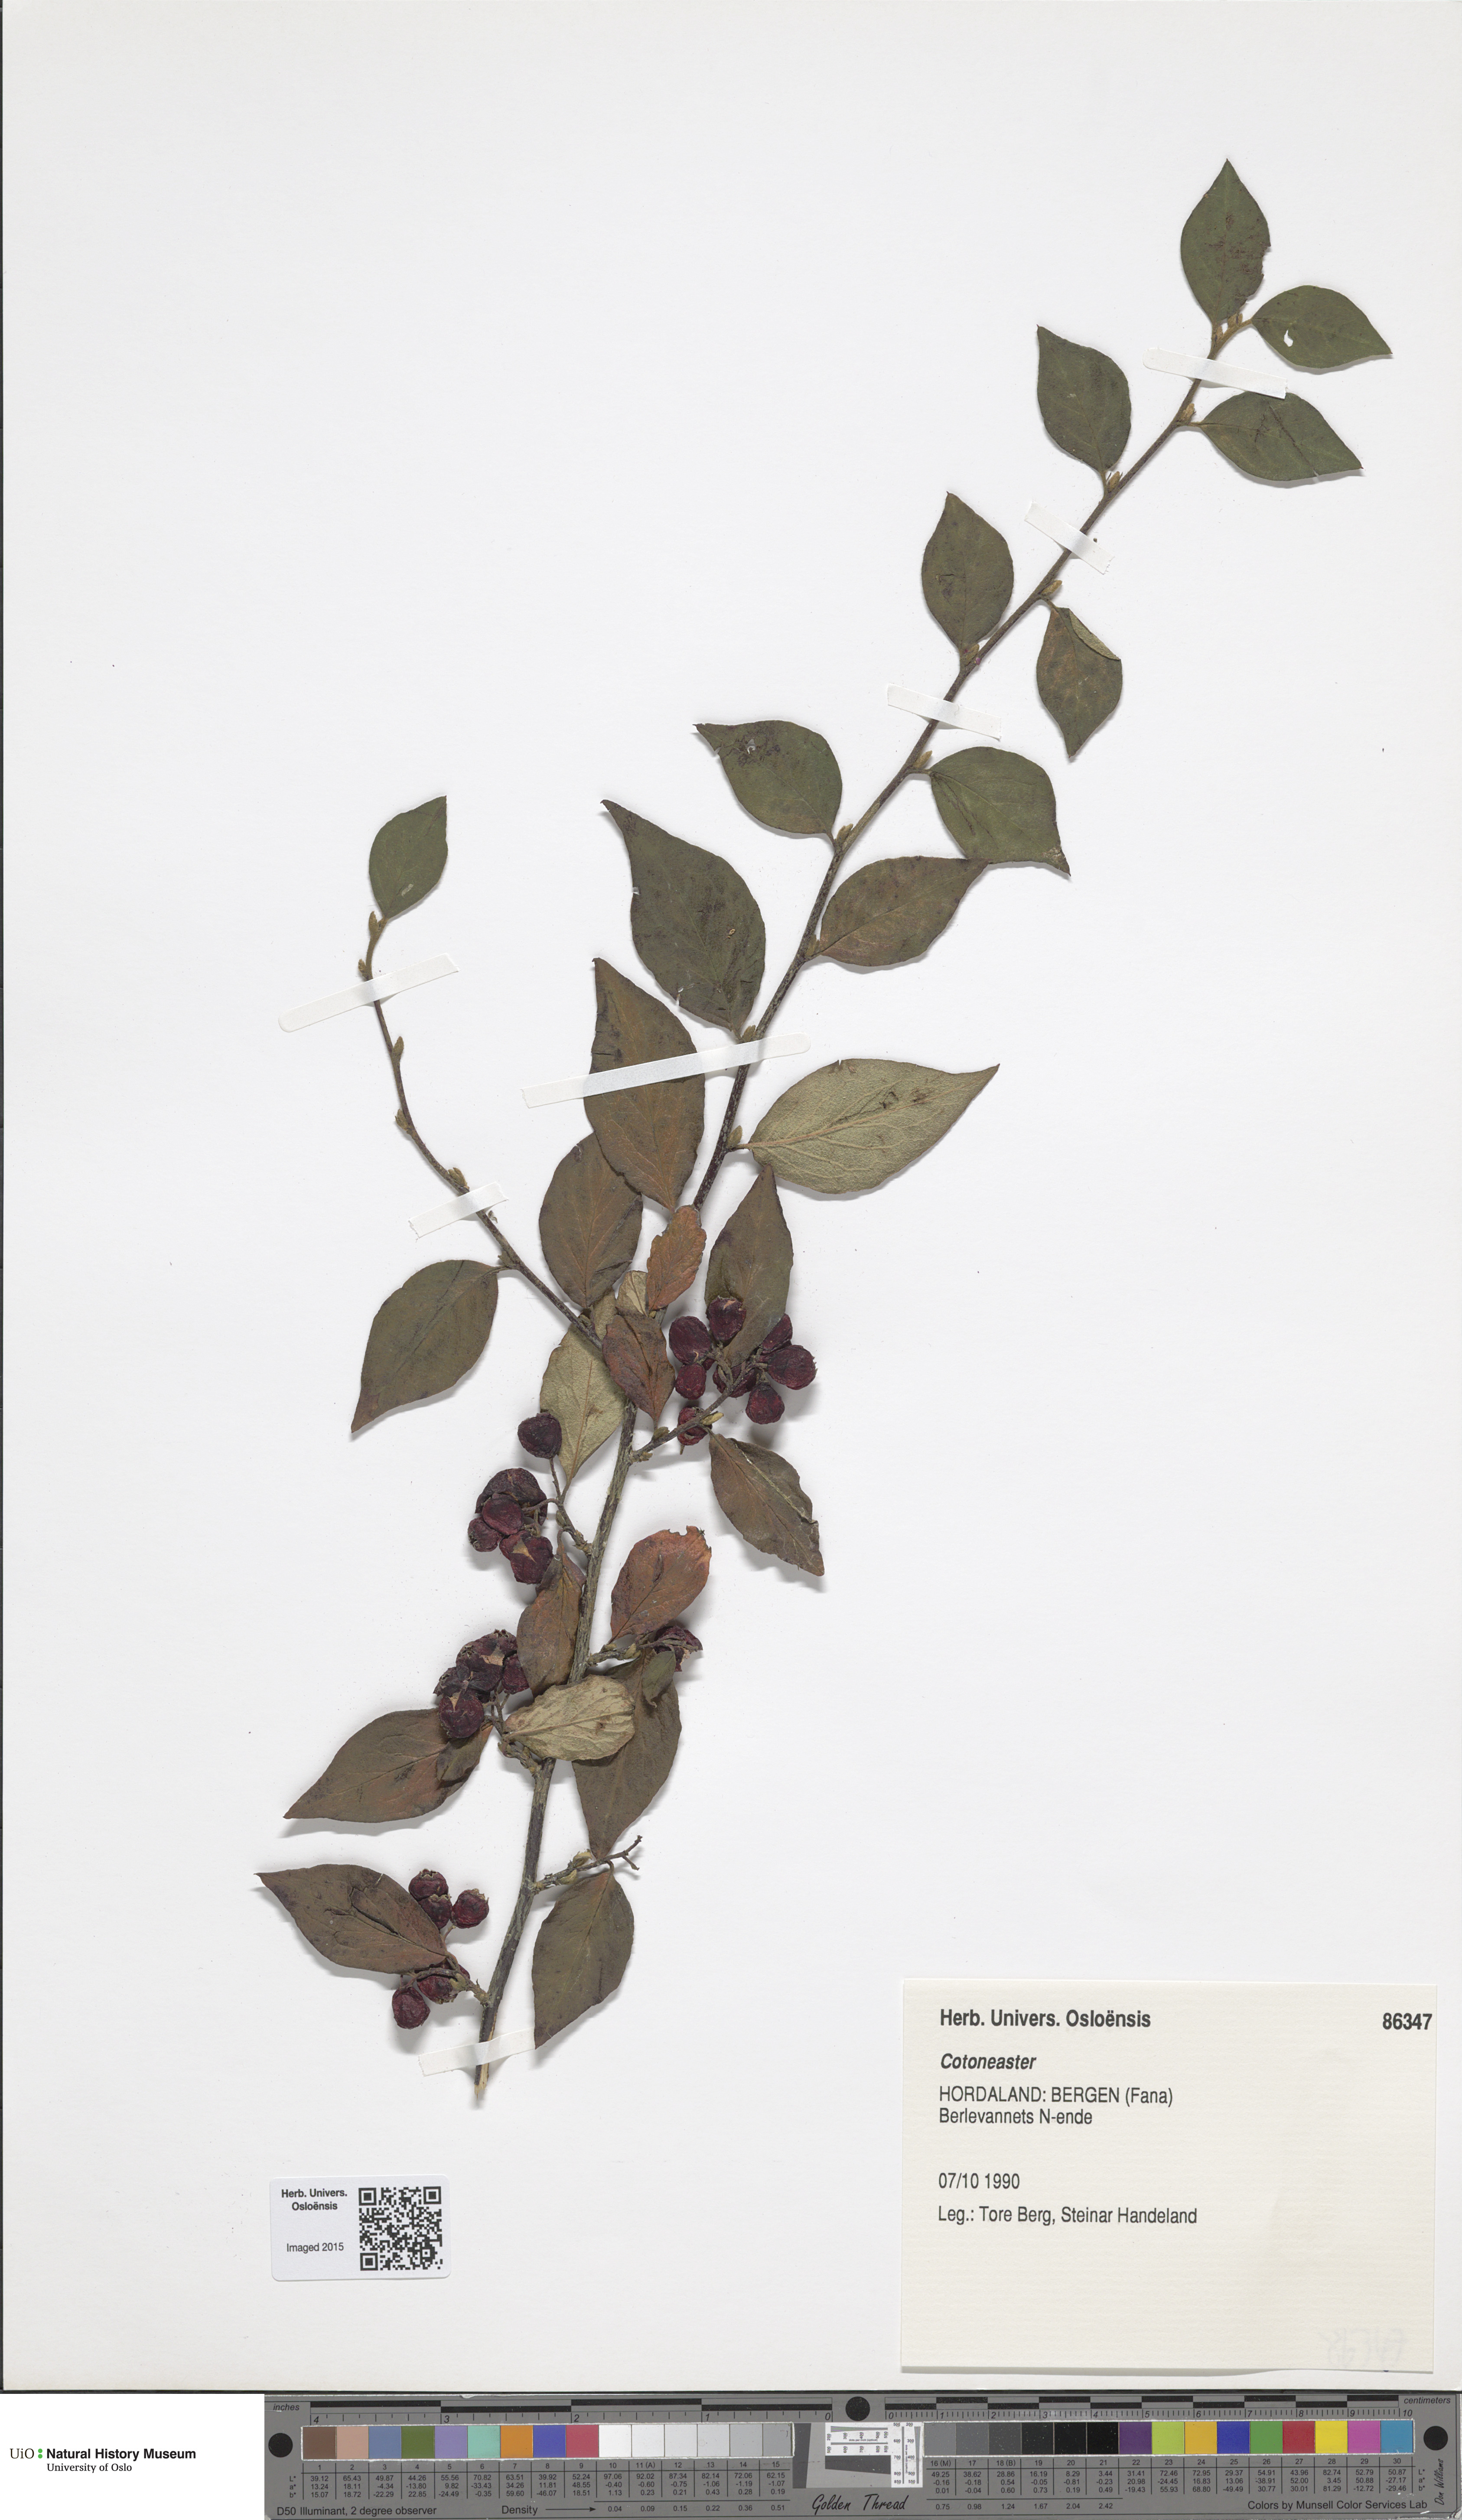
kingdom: Plantae
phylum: Tracheophyta
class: Magnoliopsida
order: Rosales
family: Rosaceae
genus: Cotoneaster
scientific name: Cotoneaster
